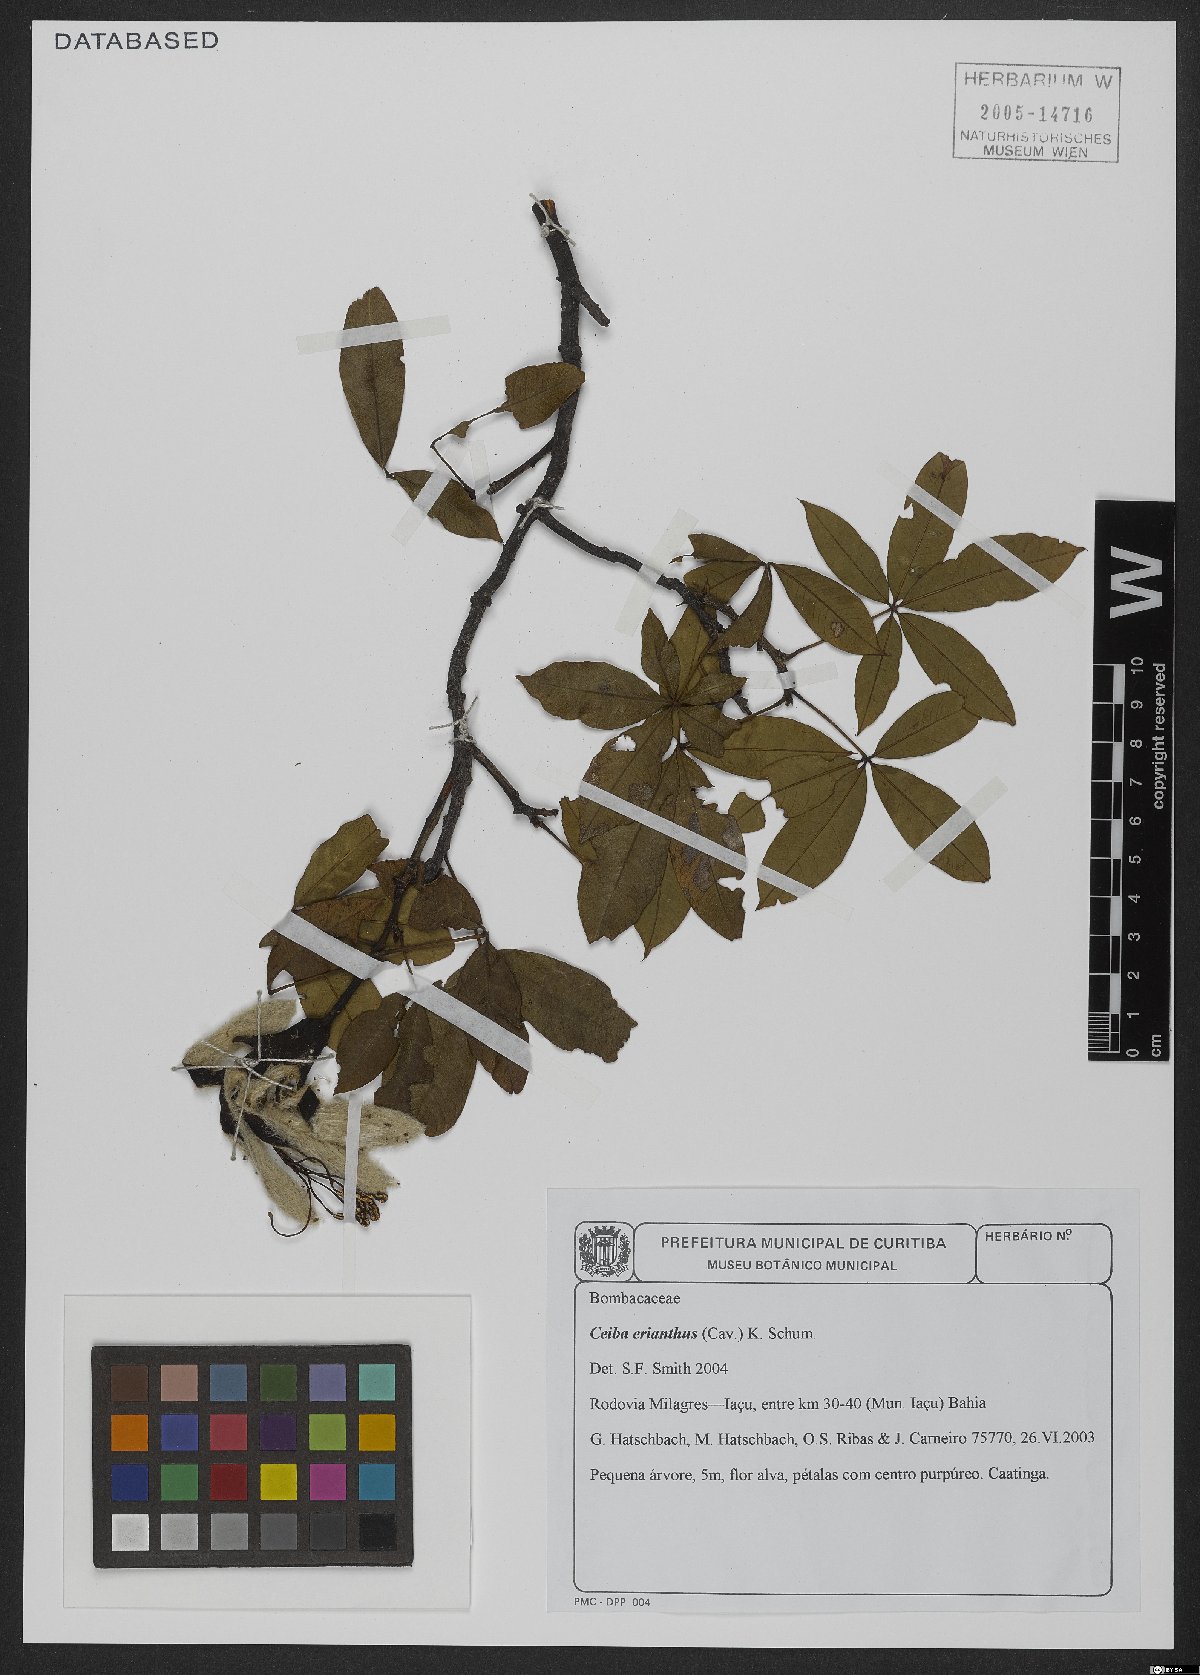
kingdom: Plantae
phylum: Tracheophyta
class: Magnoliopsida
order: Malvales
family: Malvaceae
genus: Ceiba
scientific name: Ceiba erianthos
